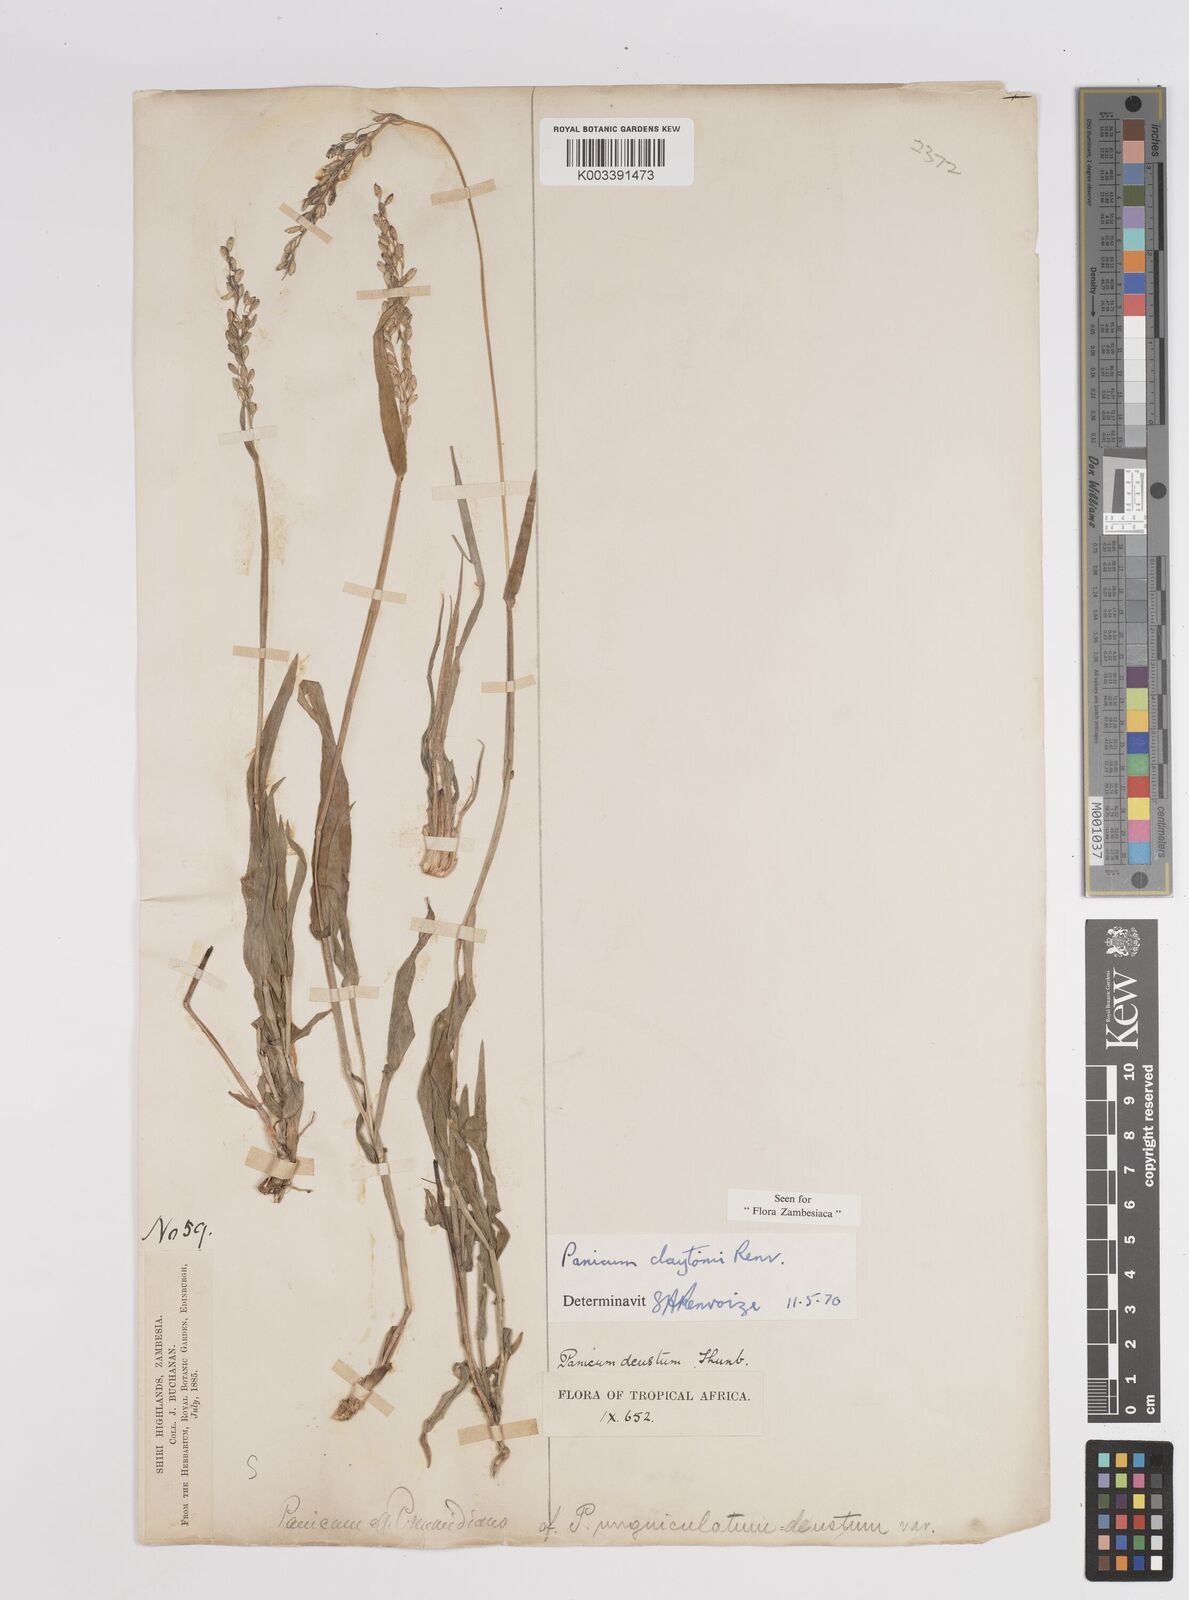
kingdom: Plantae
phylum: Tracheophyta
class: Liliopsida
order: Poales
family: Poaceae
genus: Adenochloa
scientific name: Adenochloa claytonii
